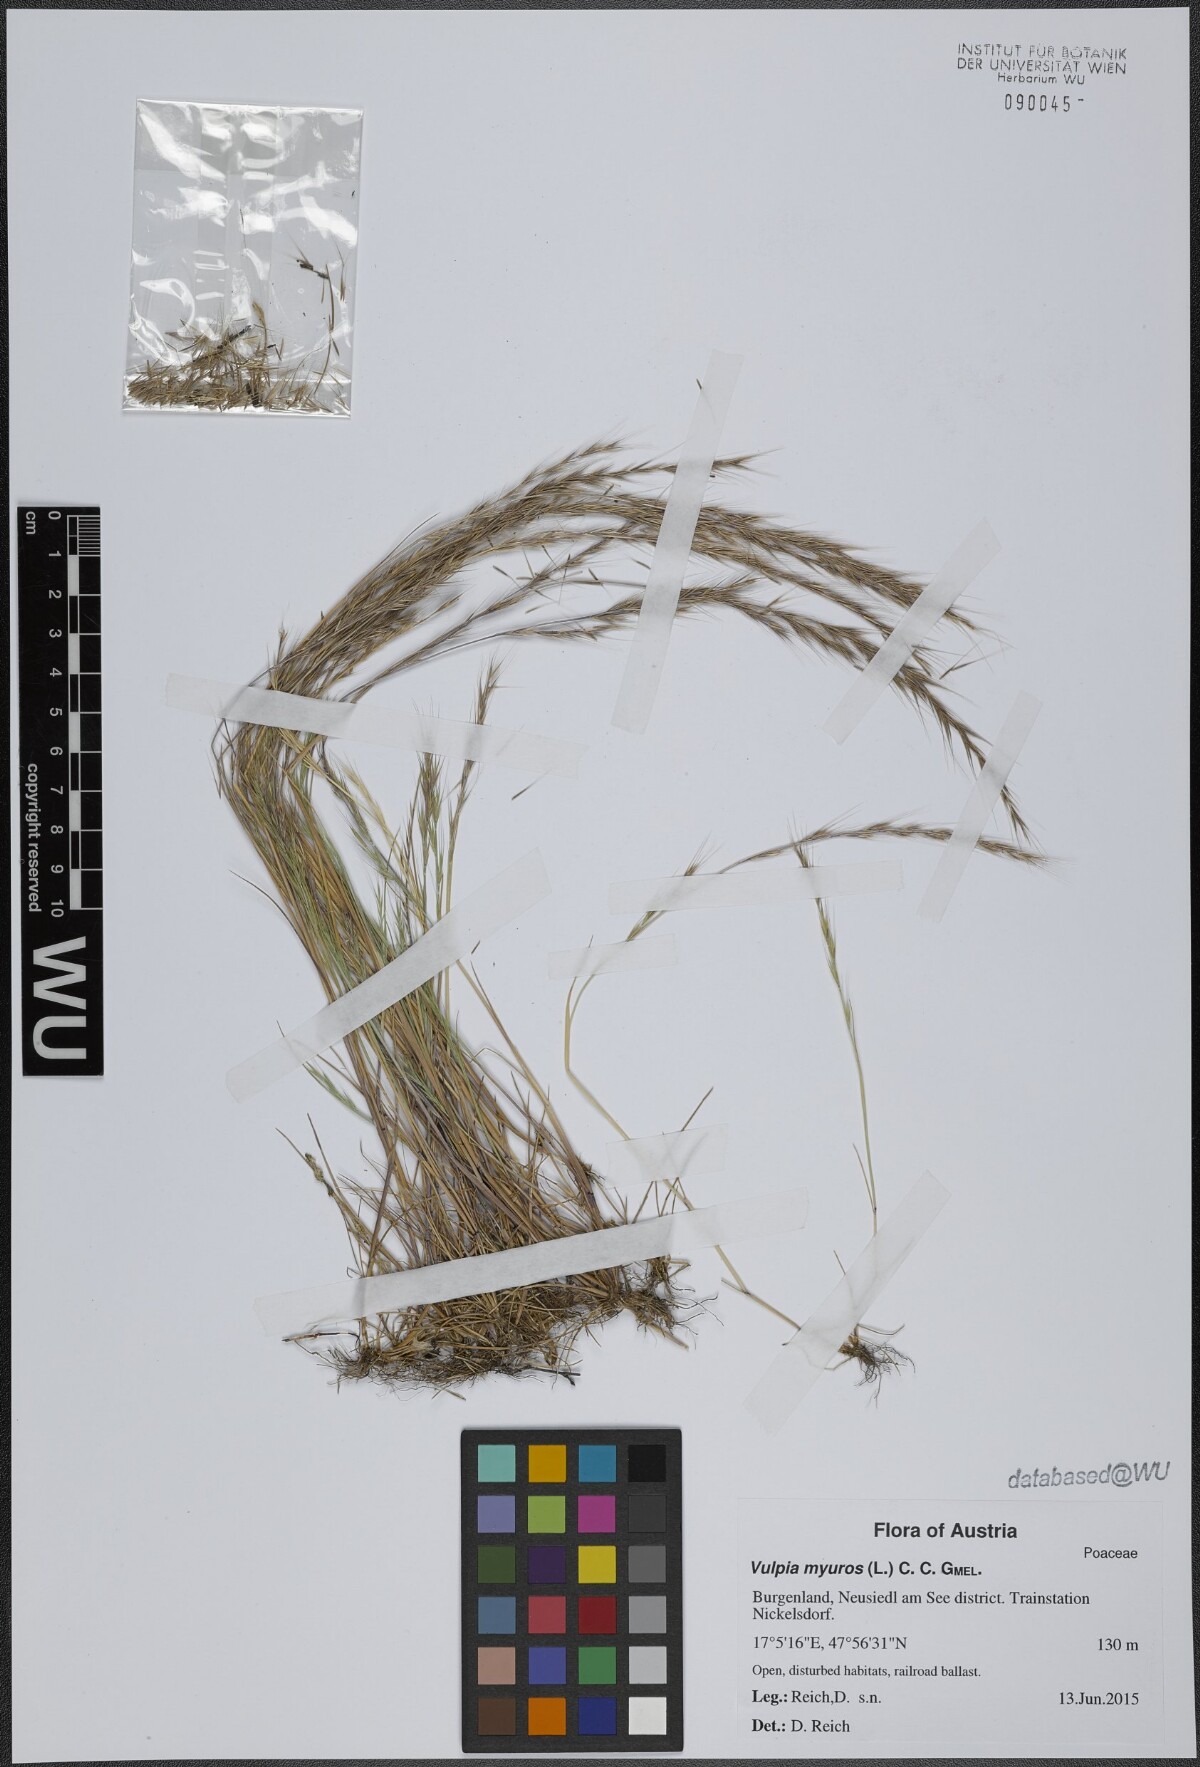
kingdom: Plantae
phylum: Tracheophyta
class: Liliopsida
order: Poales
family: Poaceae
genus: Festuca
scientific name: Festuca myuros
